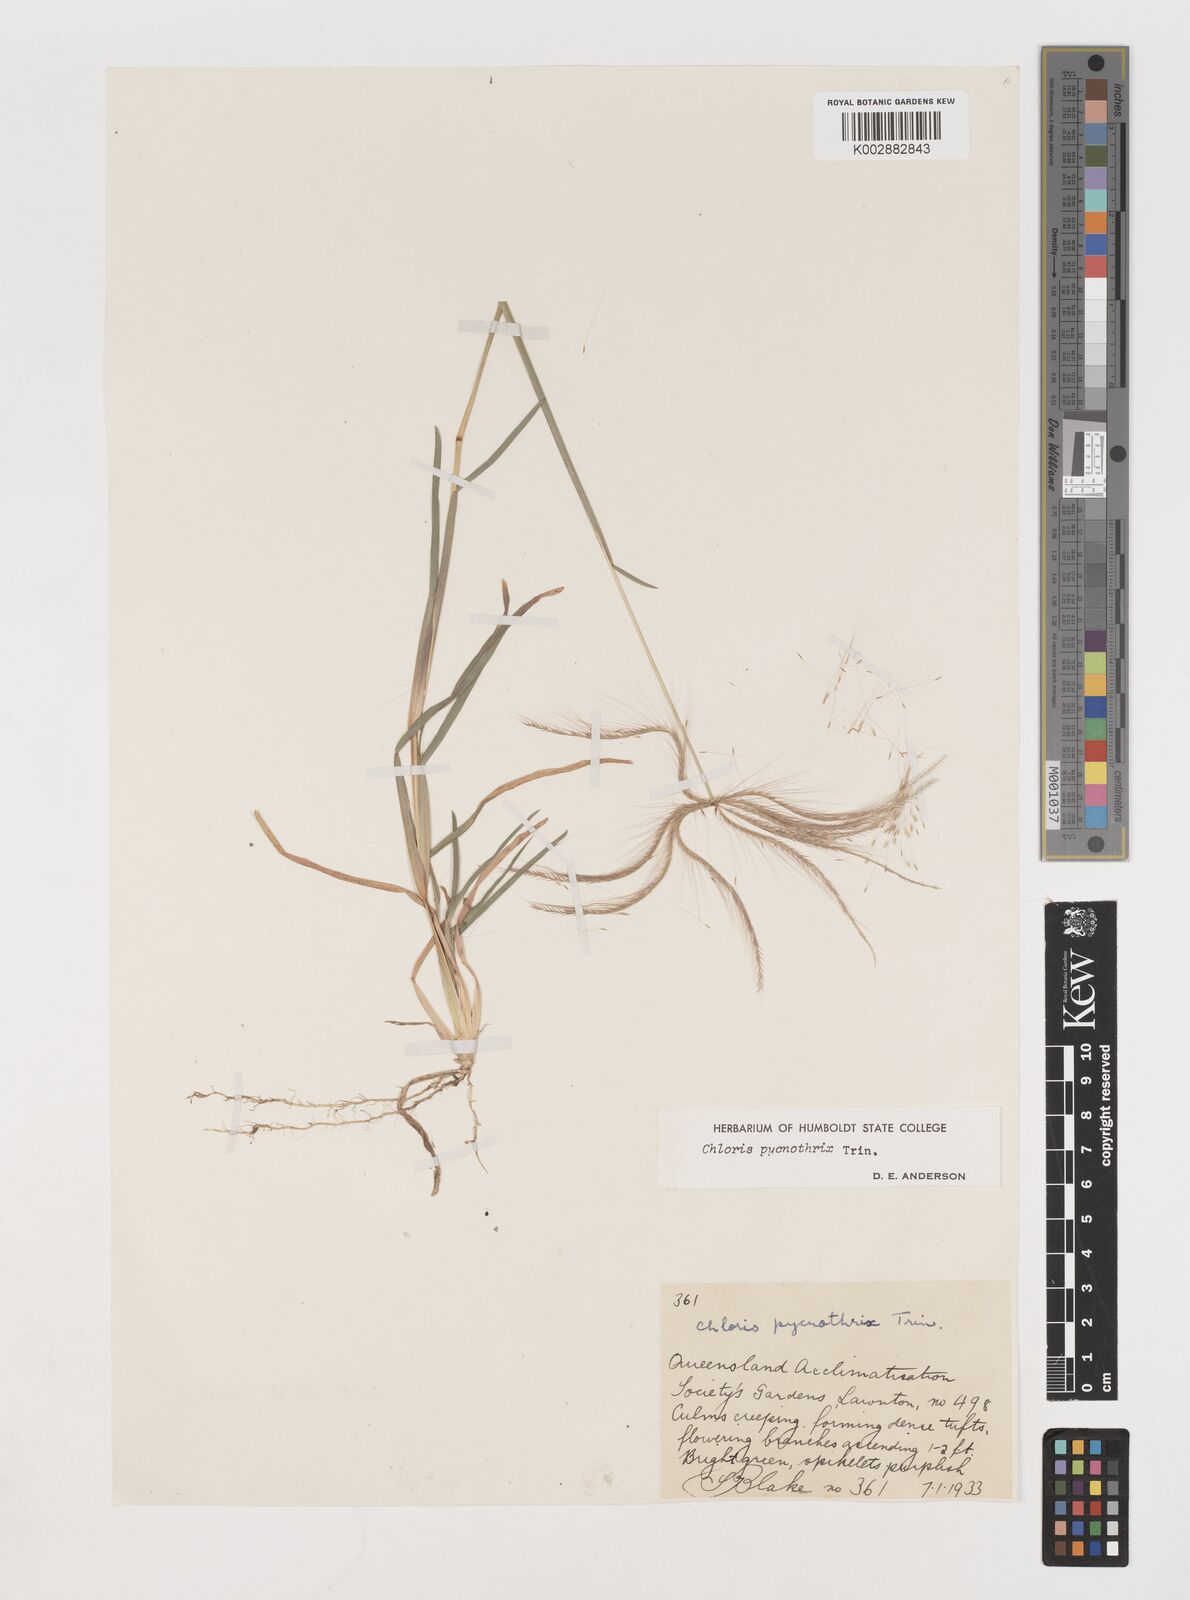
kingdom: Plantae
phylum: Tracheophyta
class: Liliopsida
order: Poales
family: Poaceae
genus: Chloris
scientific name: Chloris pycnothrix
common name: Spiderweb chloris
